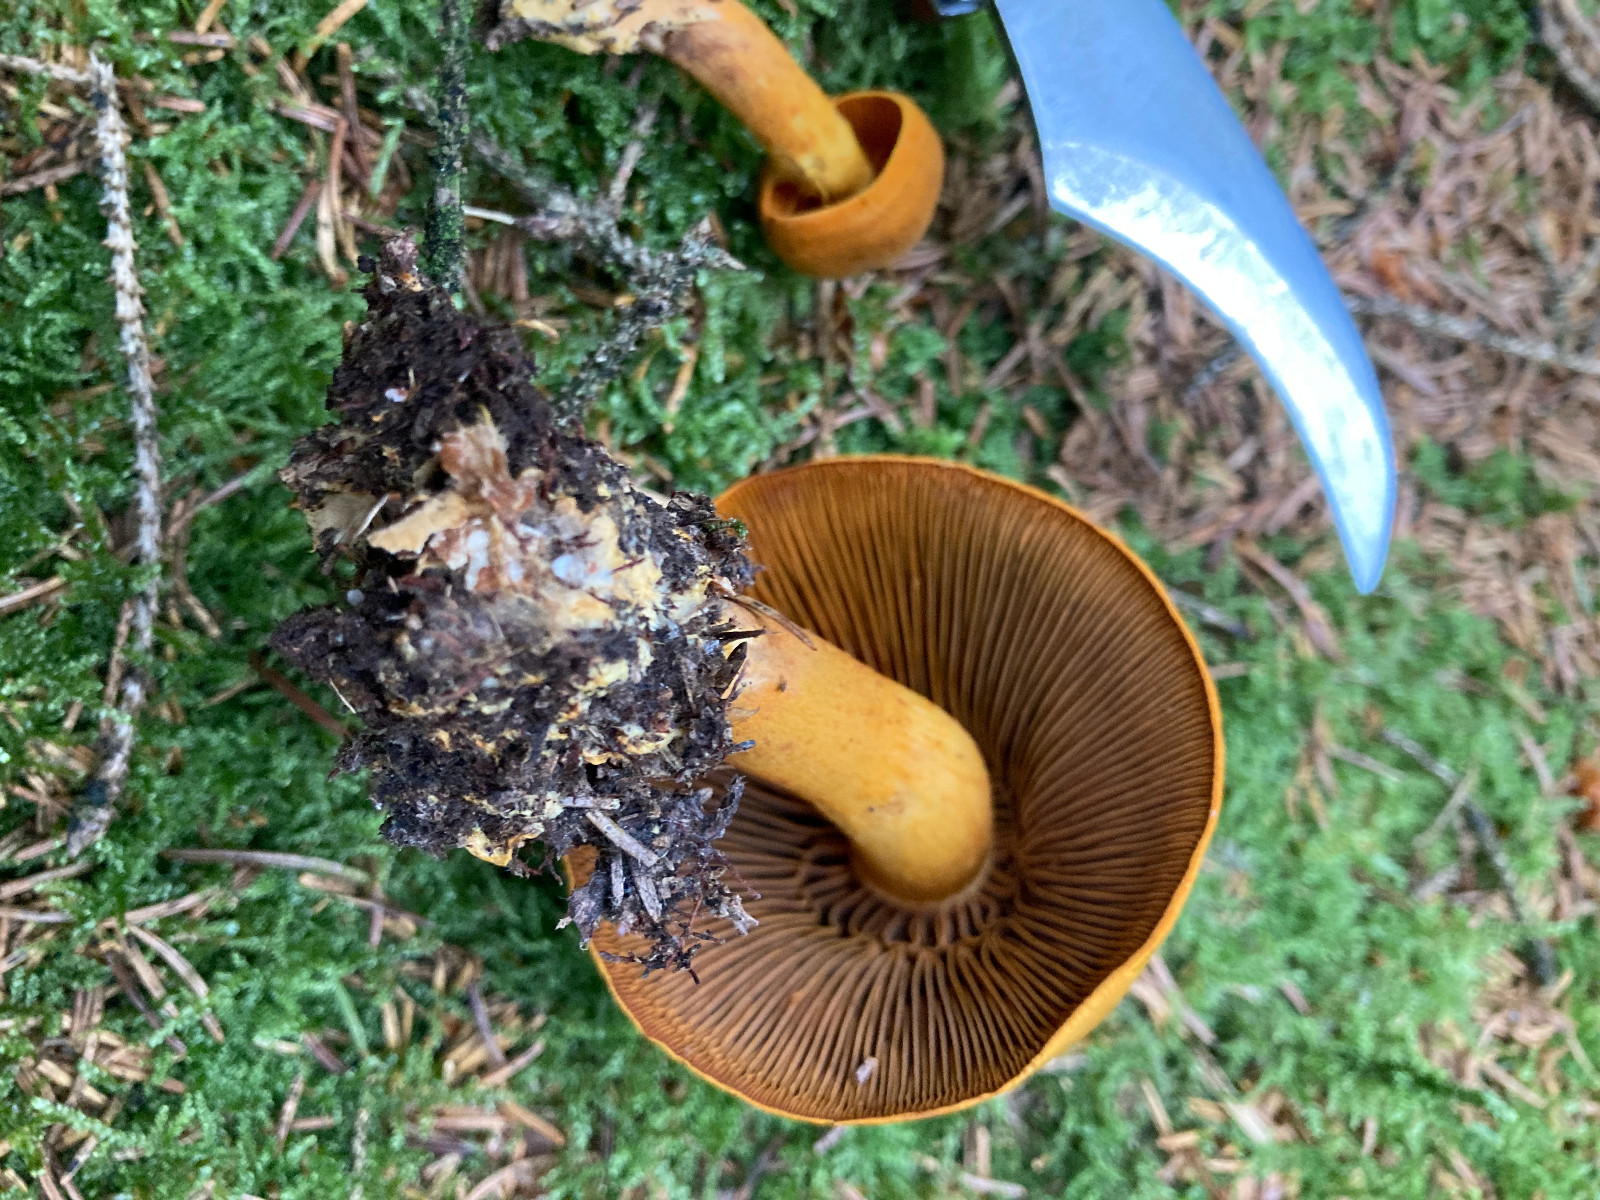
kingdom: Fungi
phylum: Basidiomycota
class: Agaricomycetes
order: Agaricales
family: Cortinariaceae
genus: Cortinarius
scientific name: Cortinarius malicorius
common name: grønkødet slørhat
